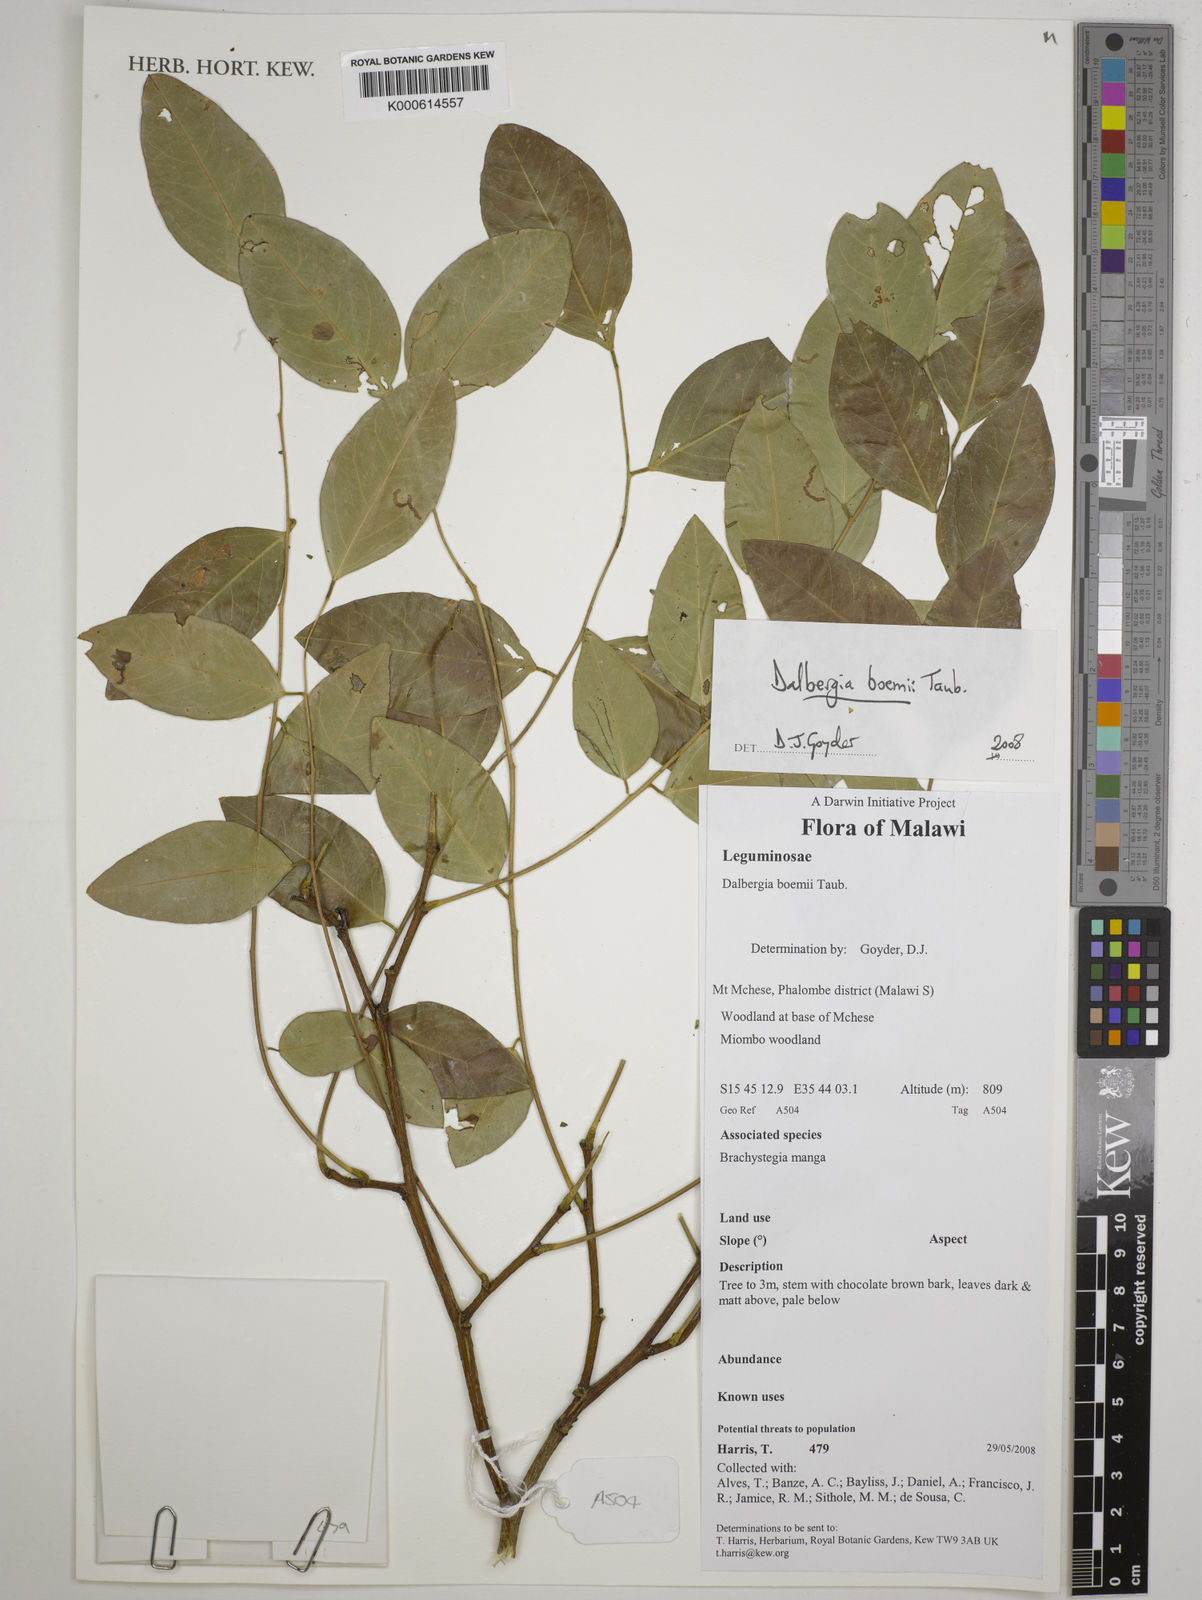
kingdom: Plantae
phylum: Tracheophyta
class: Magnoliopsida
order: Fabales
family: Fabaceae
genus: Dalbergia
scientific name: Dalbergia
